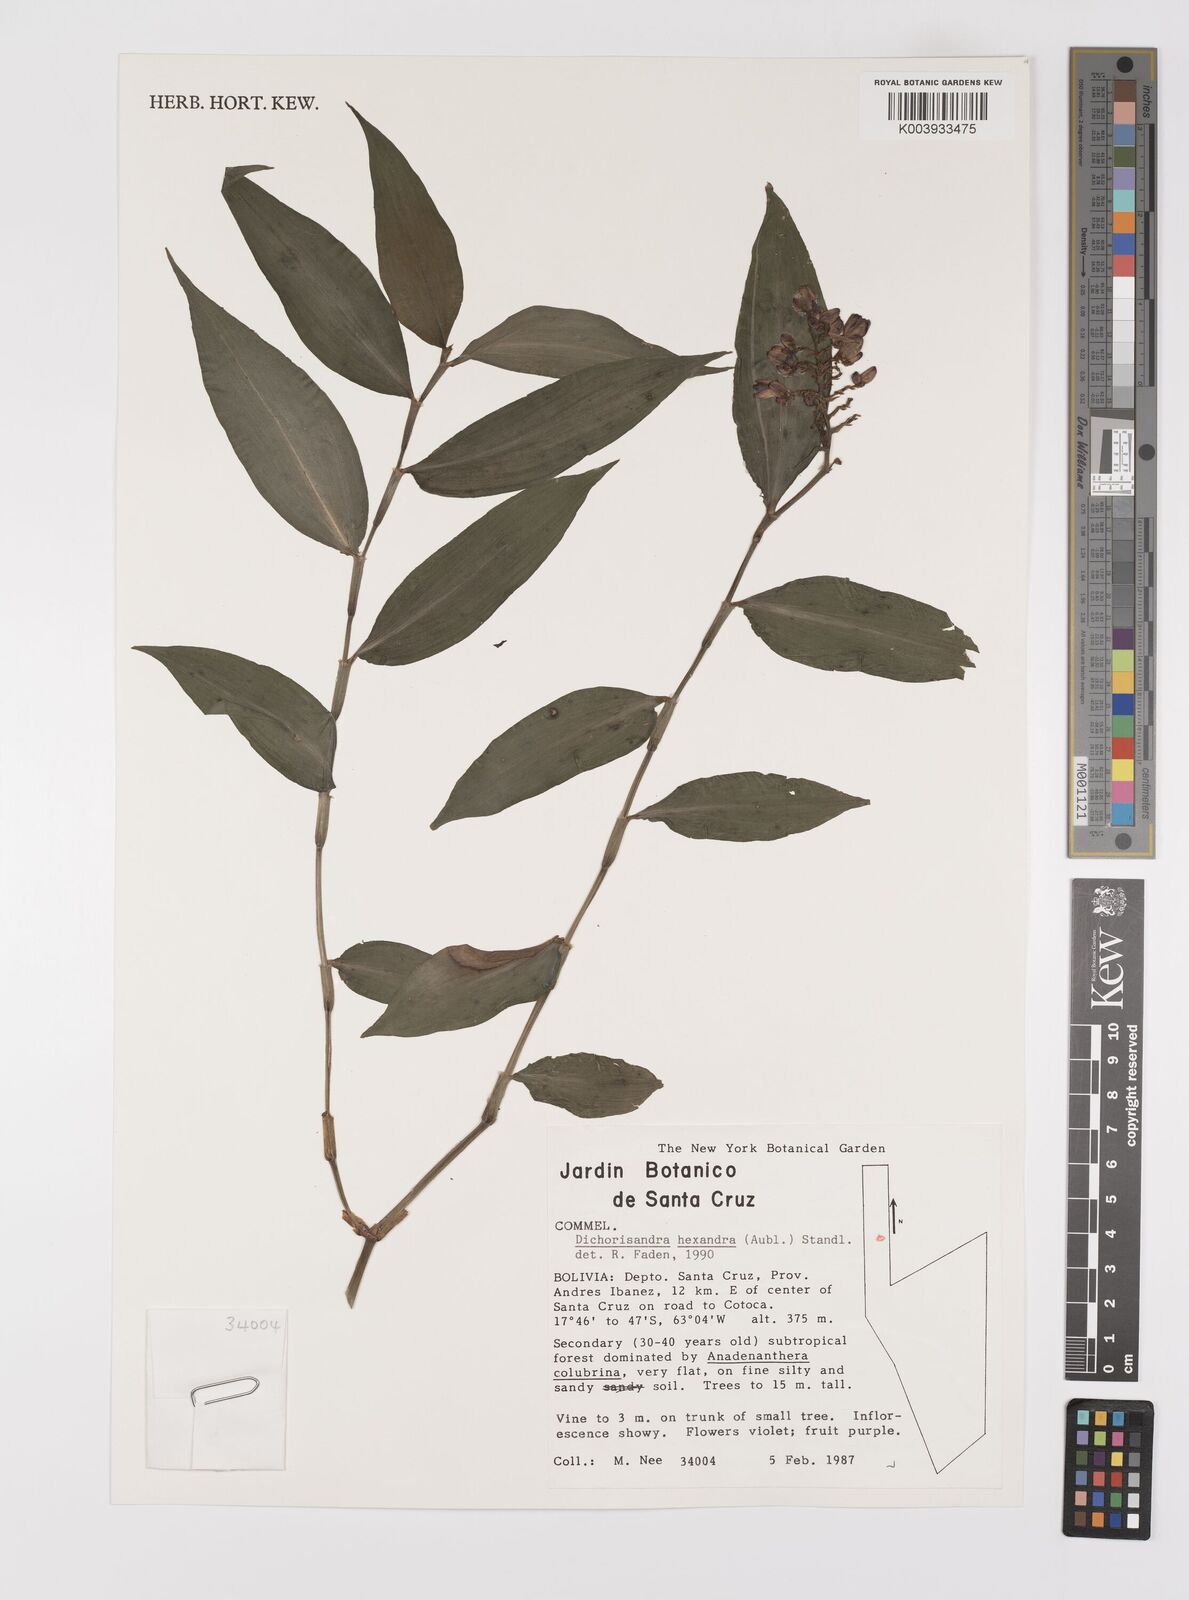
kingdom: Plantae
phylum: Tracheophyta
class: Liliopsida
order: Commelinales
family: Commelinaceae
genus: Dichorisandra
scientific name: Dichorisandra hexandra
